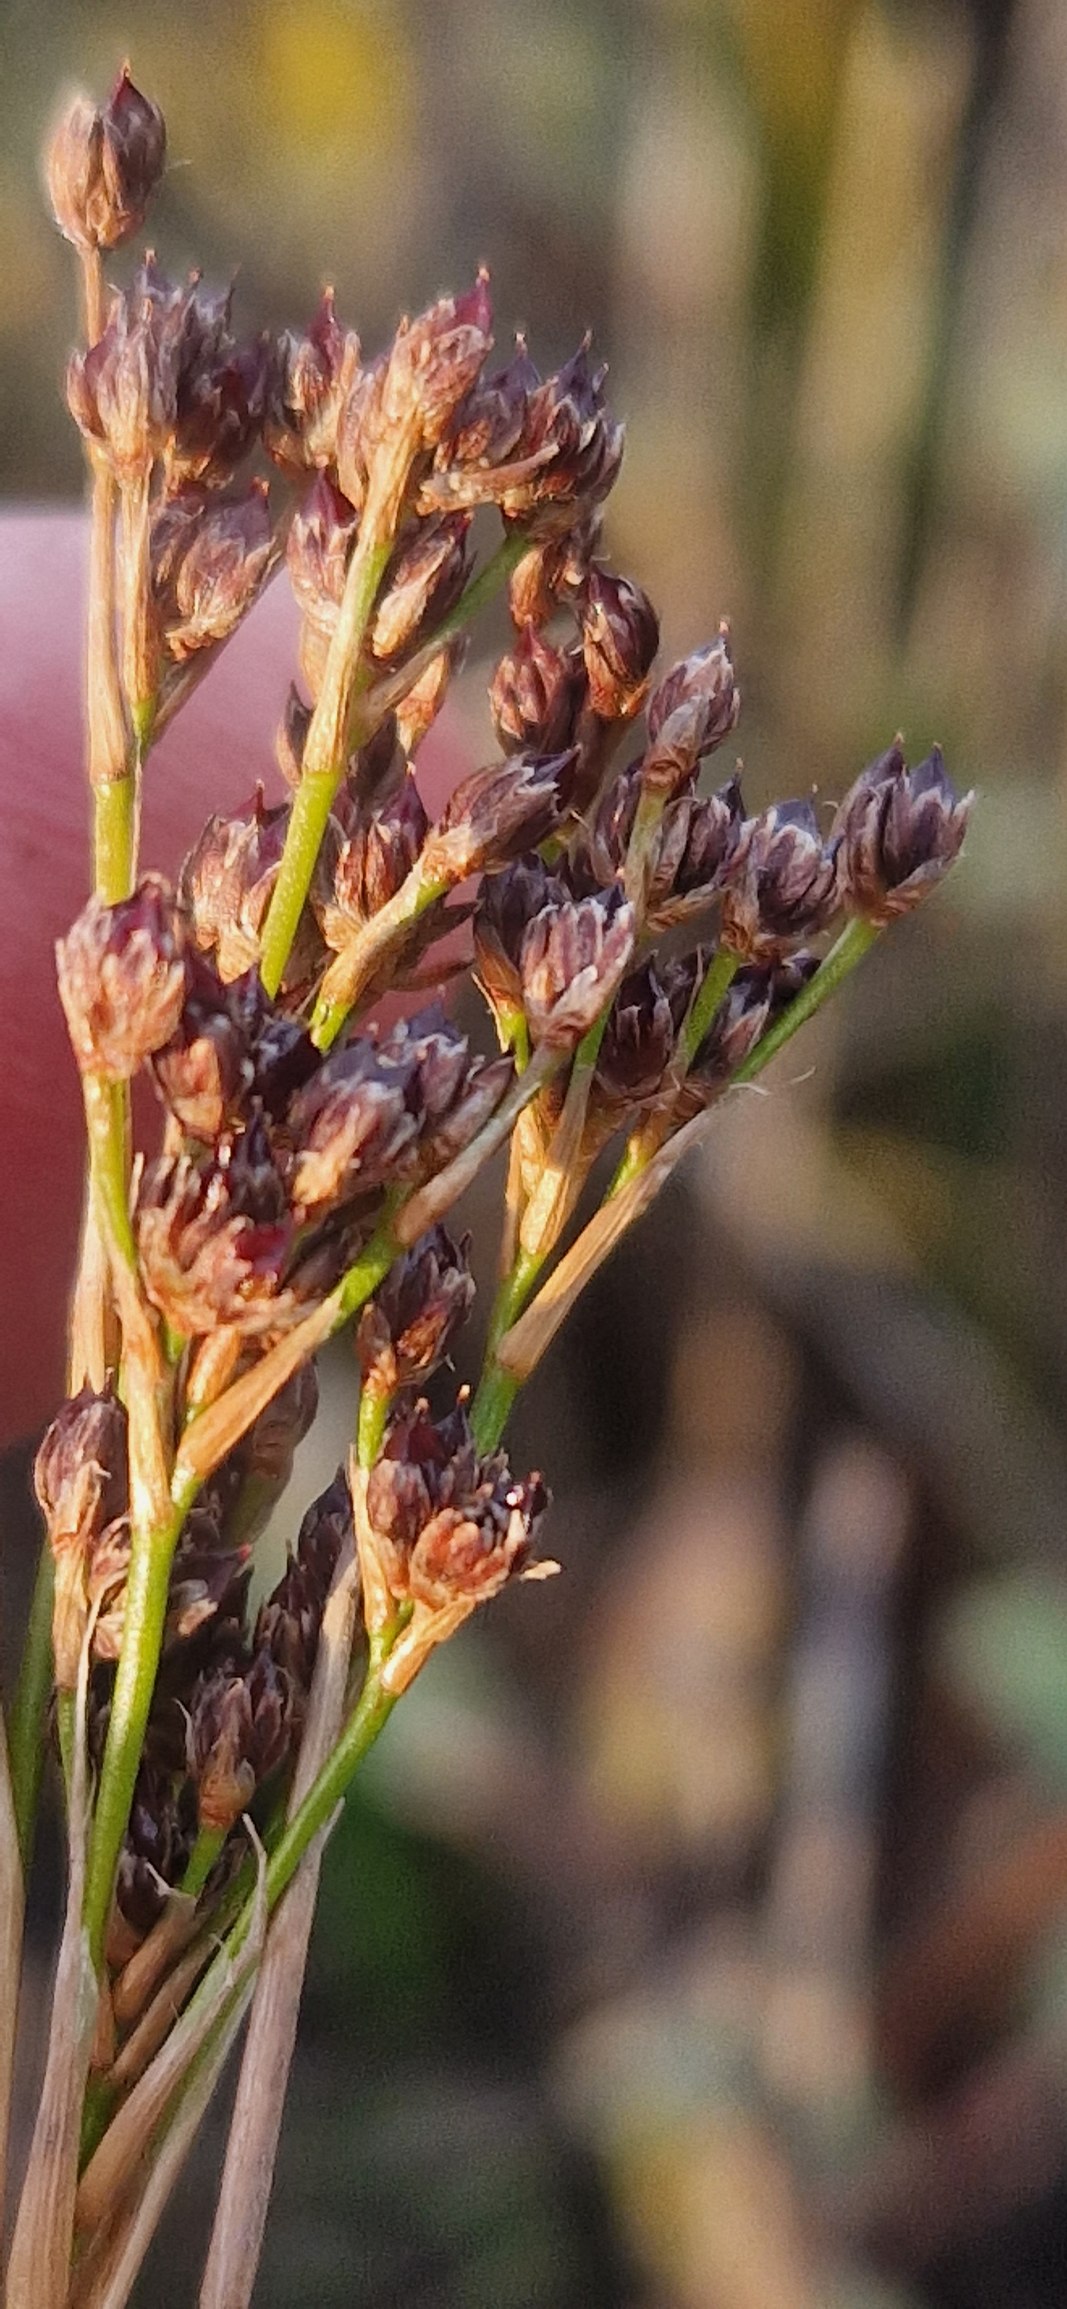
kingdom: Plantae
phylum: Tracheophyta
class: Liliopsida
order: Poales
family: Juncaceae
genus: Juncus
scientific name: Juncus anceps
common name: Sand-siv
